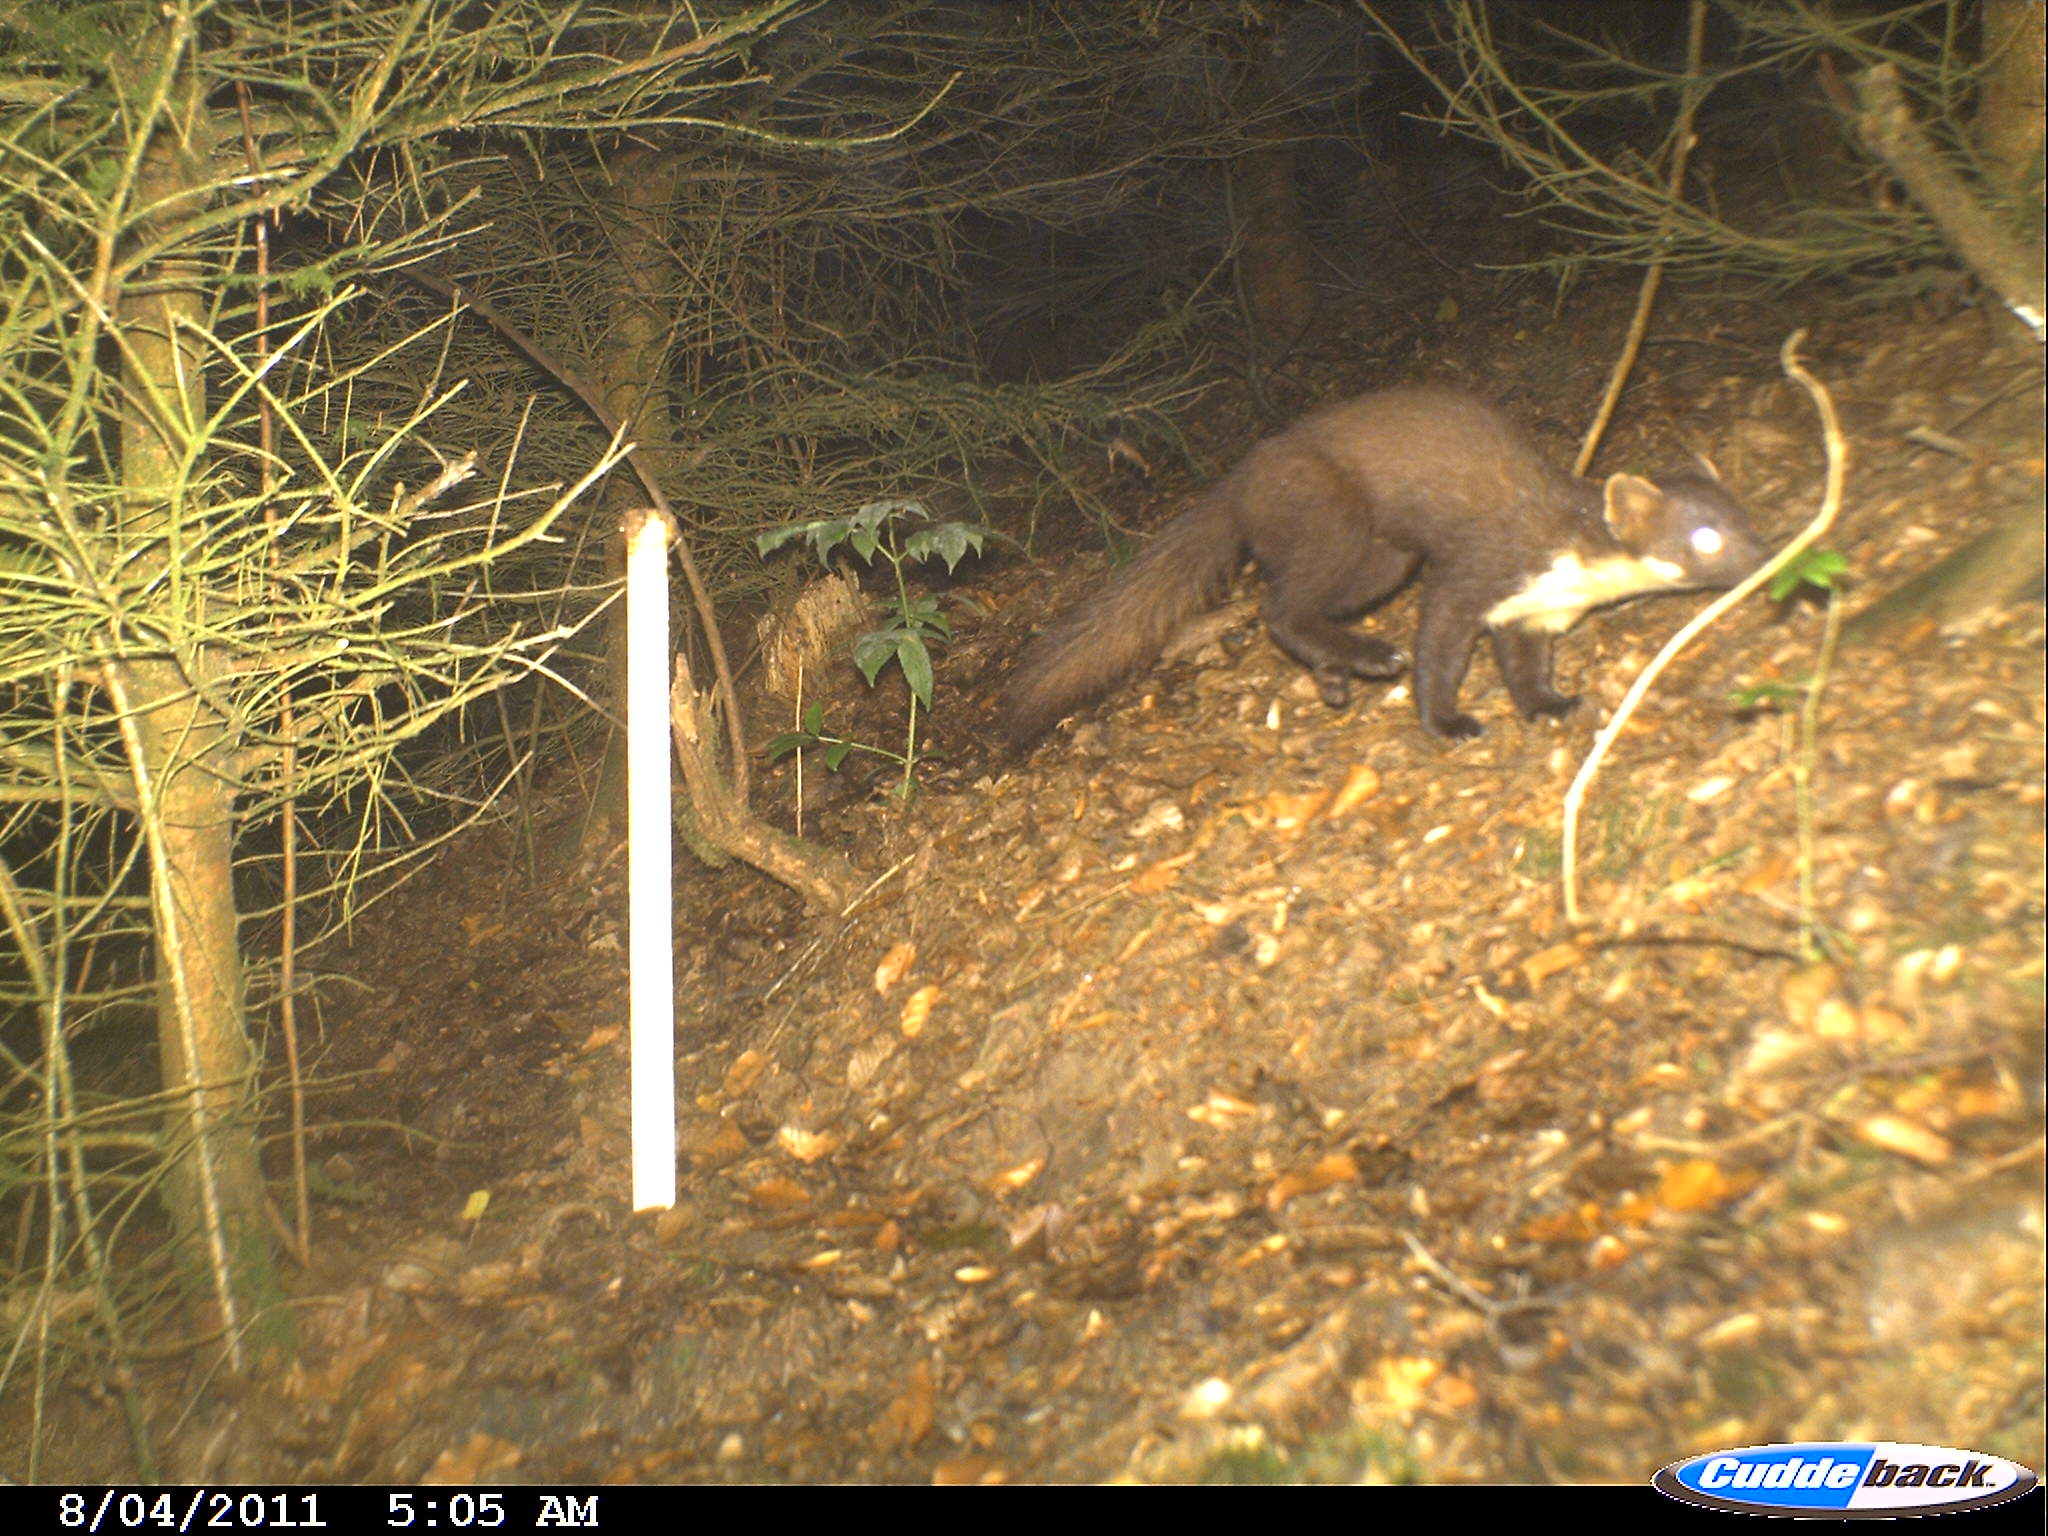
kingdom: Animalia
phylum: Chordata
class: Mammalia
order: Carnivora
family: Mustelidae
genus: Martes
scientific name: Martes
